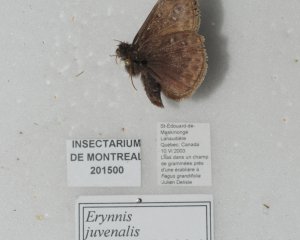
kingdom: Animalia
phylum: Arthropoda
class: Insecta
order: Lepidoptera
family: Hesperiidae
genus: Gesta
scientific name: Gesta
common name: Juvenal's Duskywing
